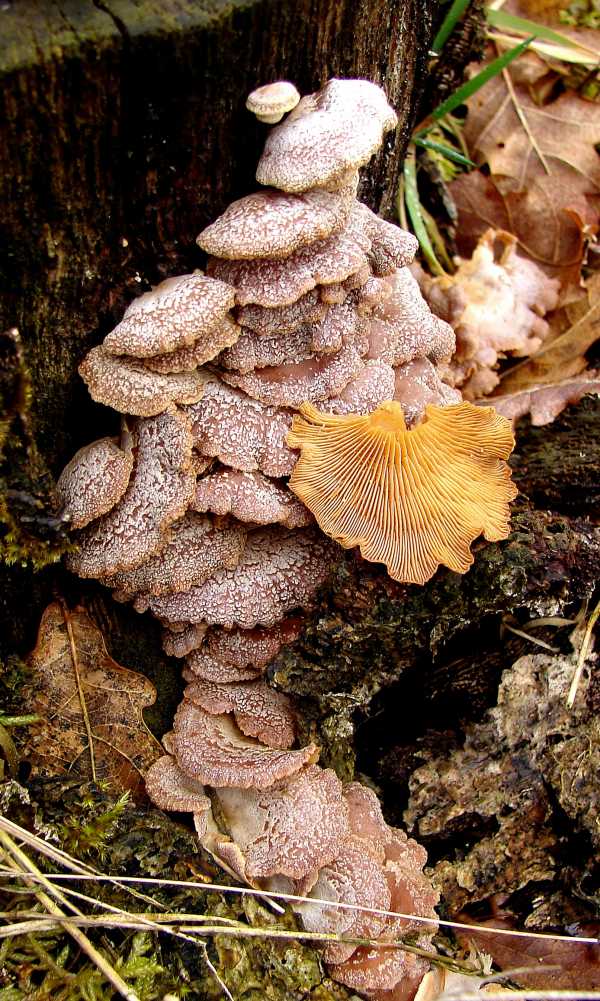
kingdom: Fungi
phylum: Basidiomycota
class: Agaricomycetes
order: Agaricales
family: Mycenaceae
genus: Panellus
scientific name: Panellus stipticus
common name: kliddet epaulethat
